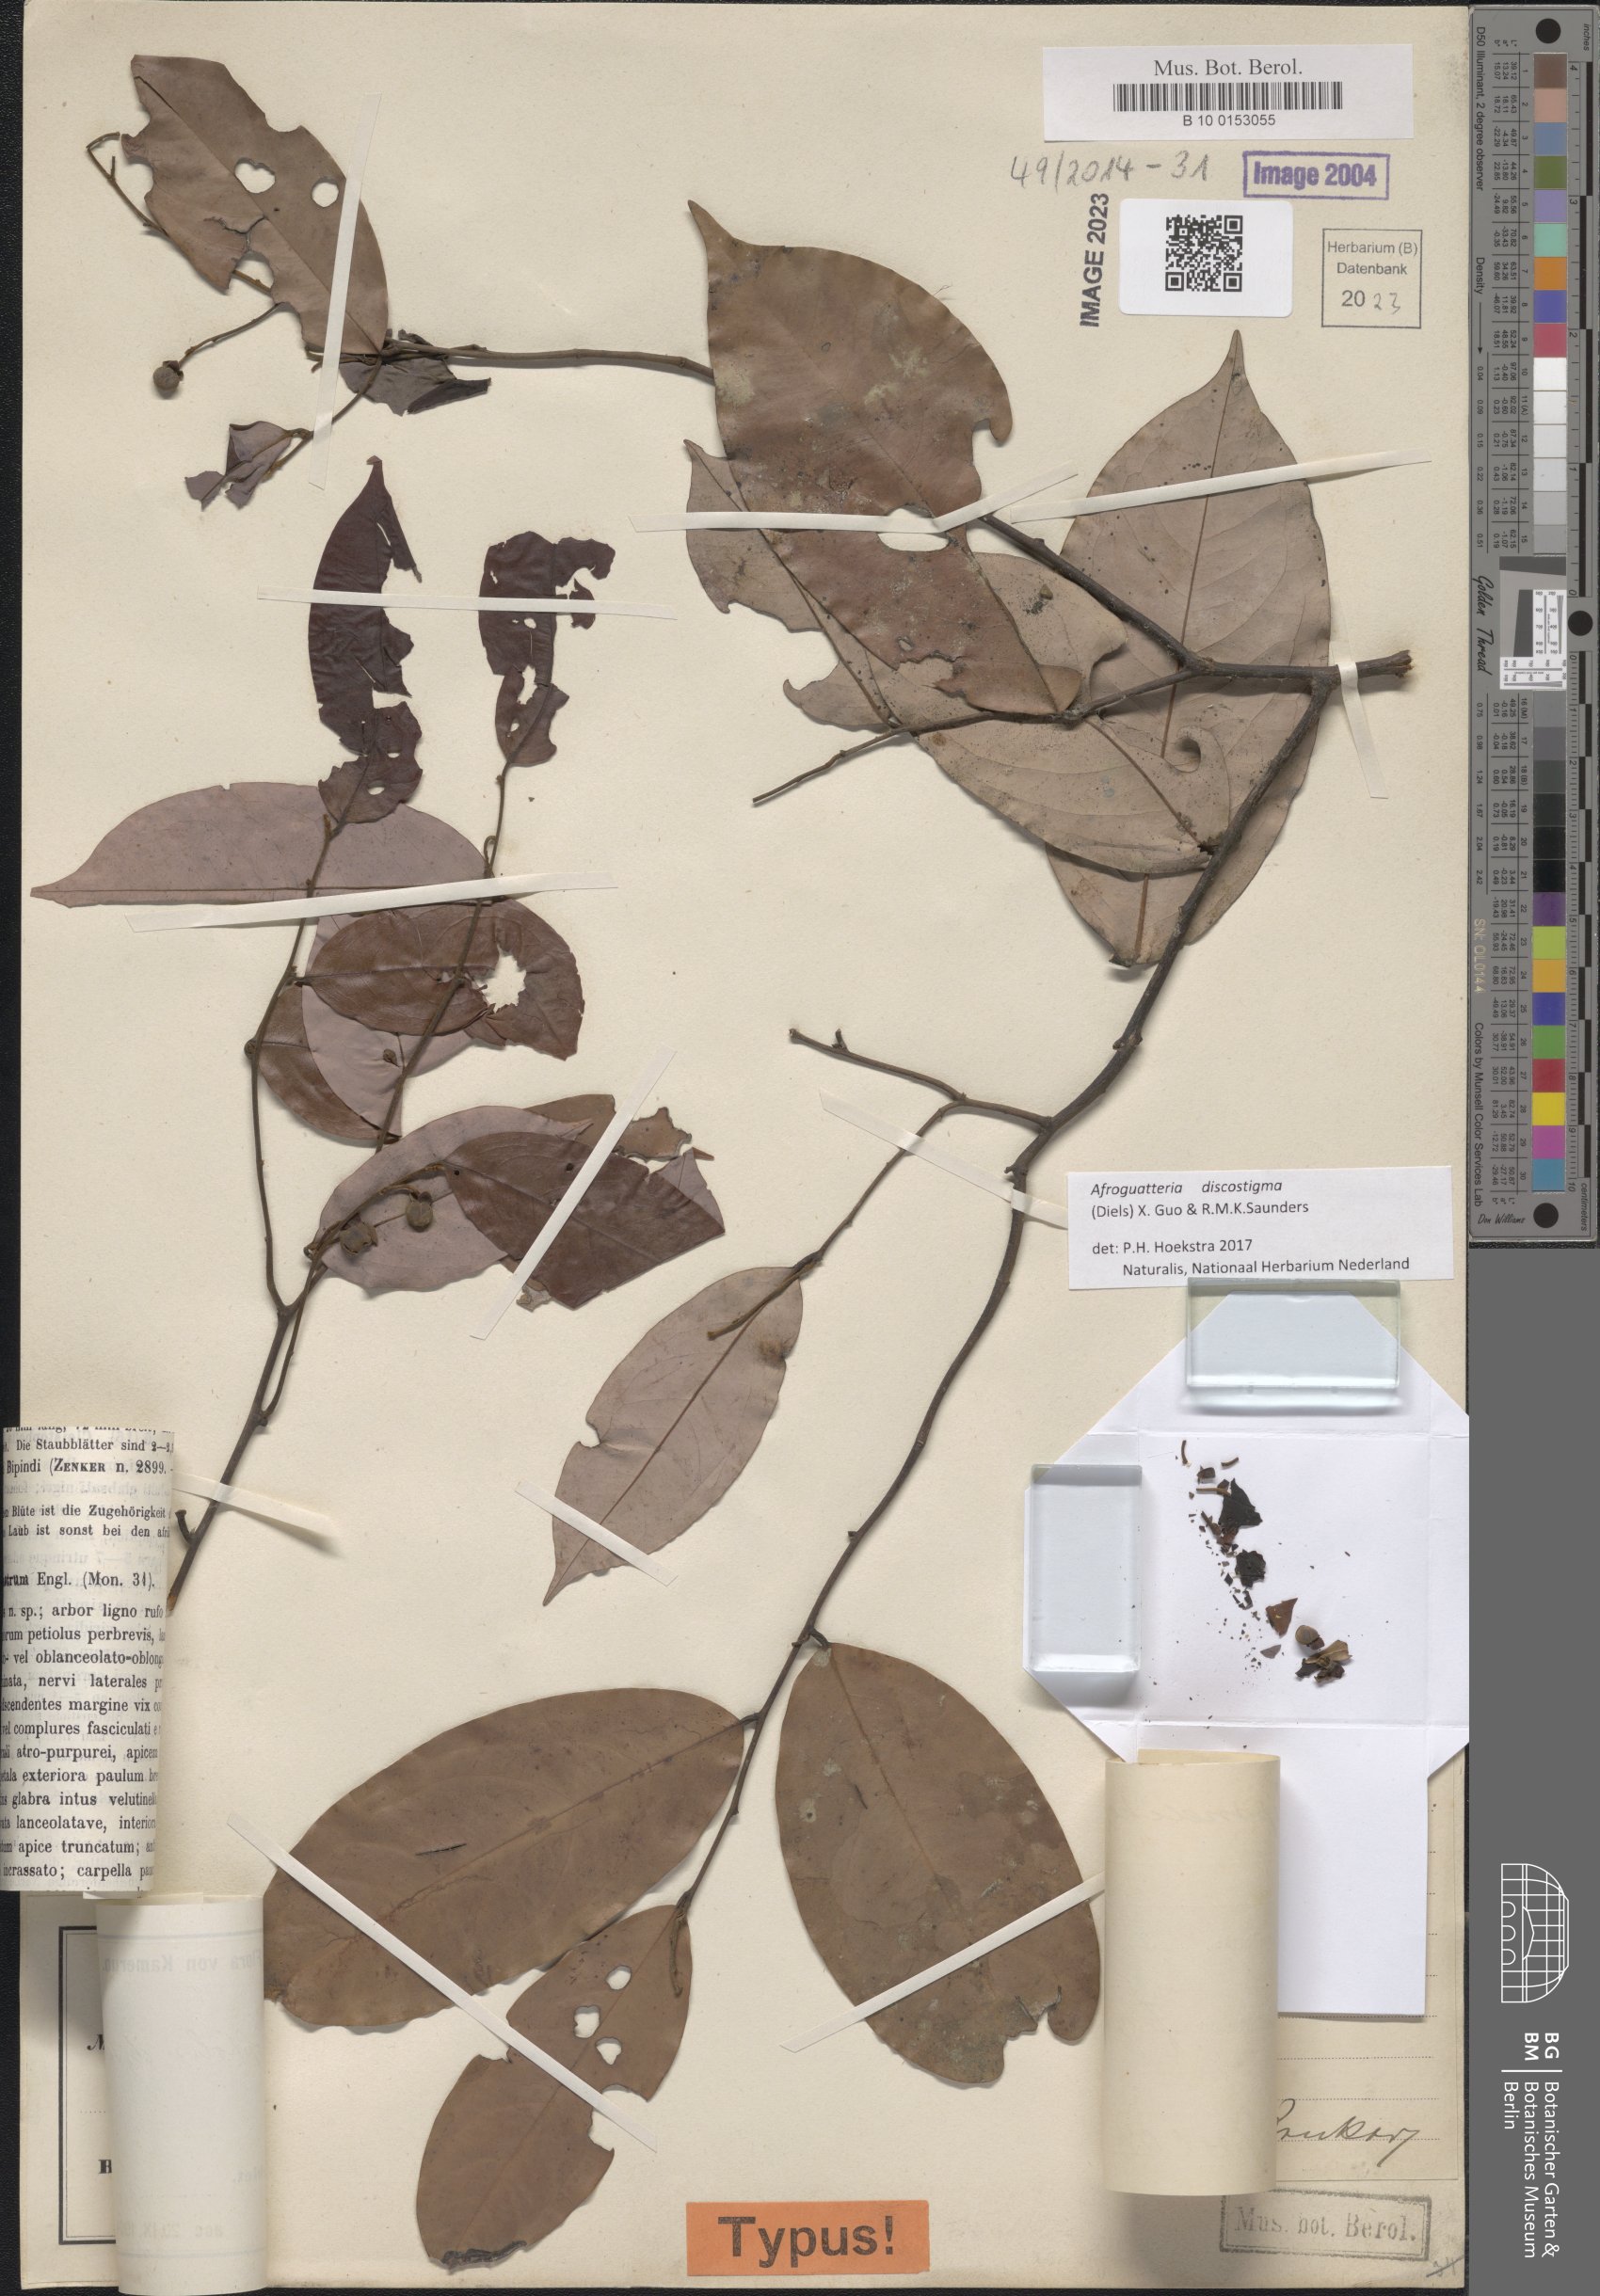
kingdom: Plantae
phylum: Tracheophyta
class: Magnoliopsida
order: Magnoliales
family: Annonaceae
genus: Friesodielsia
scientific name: Friesodielsia discostigma
